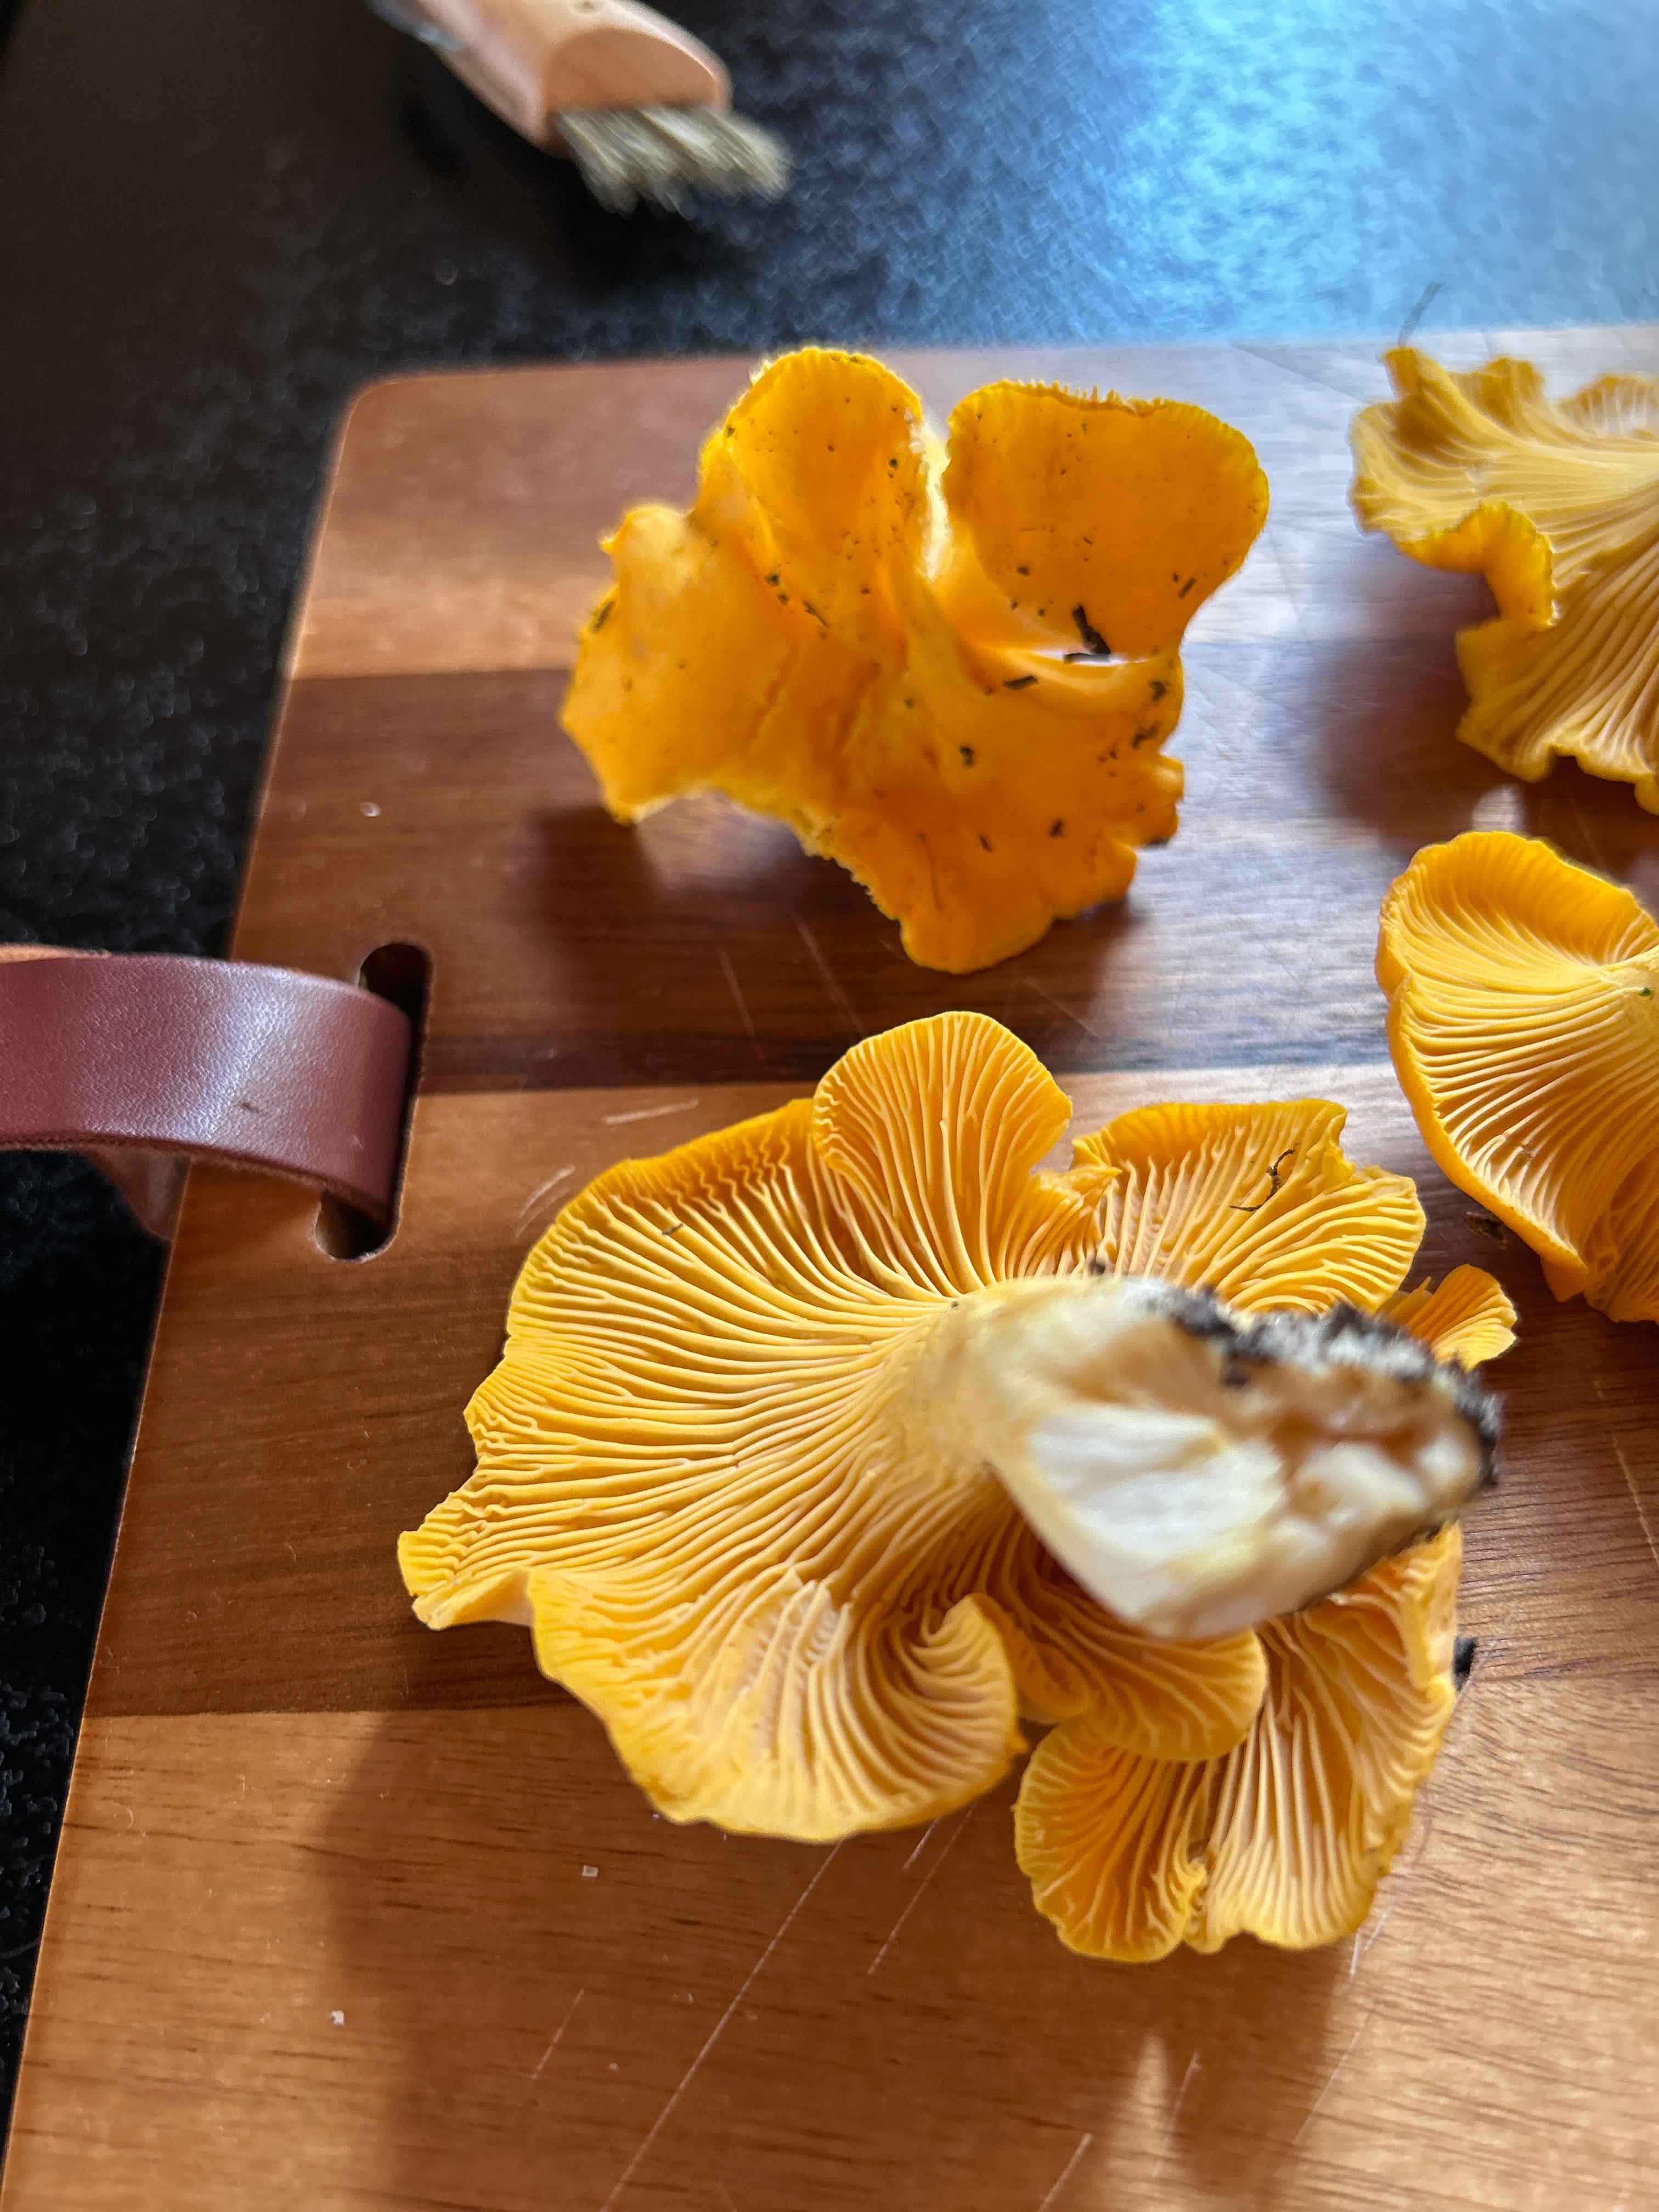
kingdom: Fungi
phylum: Basidiomycota
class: Agaricomycetes
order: Cantharellales
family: Hydnaceae
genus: Cantharellus
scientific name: Cantharellus cibarius
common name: almindelig kantarel
